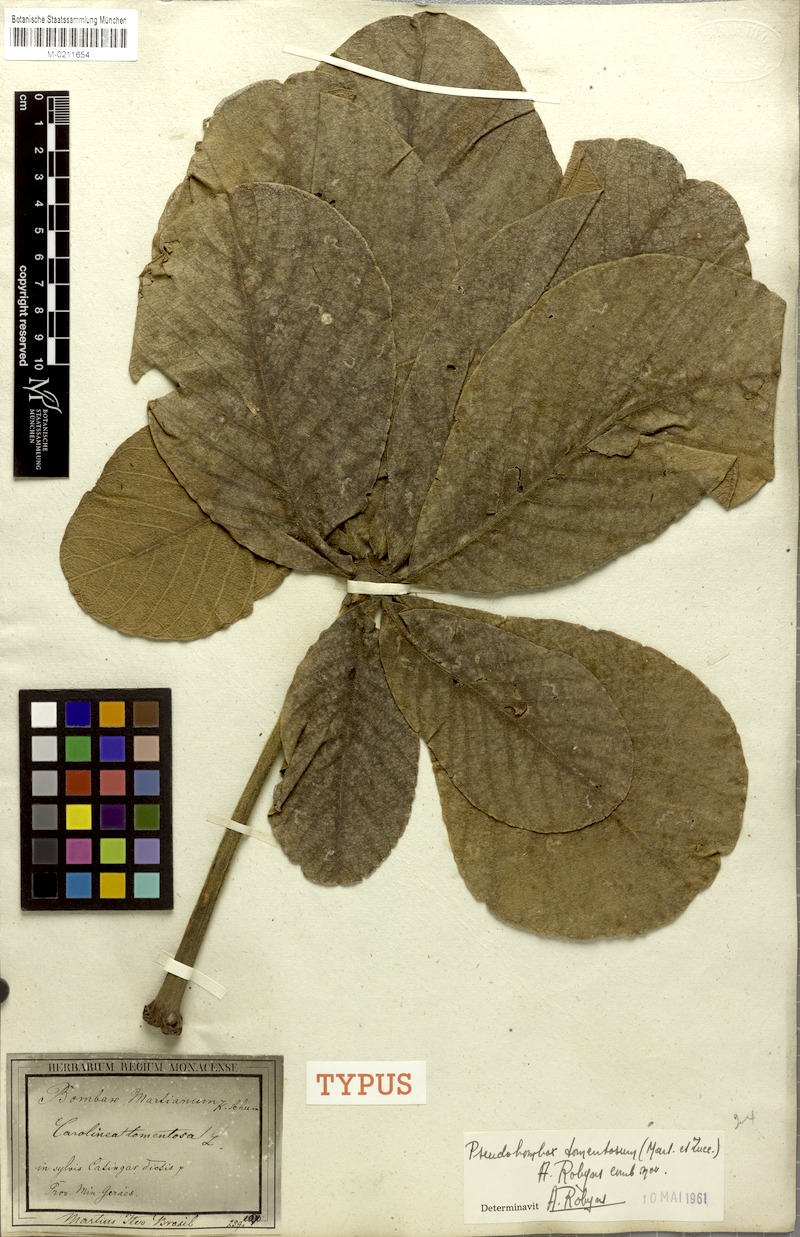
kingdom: Plantae
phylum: Tracheophyta
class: Magnoliopsida
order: Malvales
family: Malvaceae
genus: Pseudobombax
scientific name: Pseudobombax tomentosum
